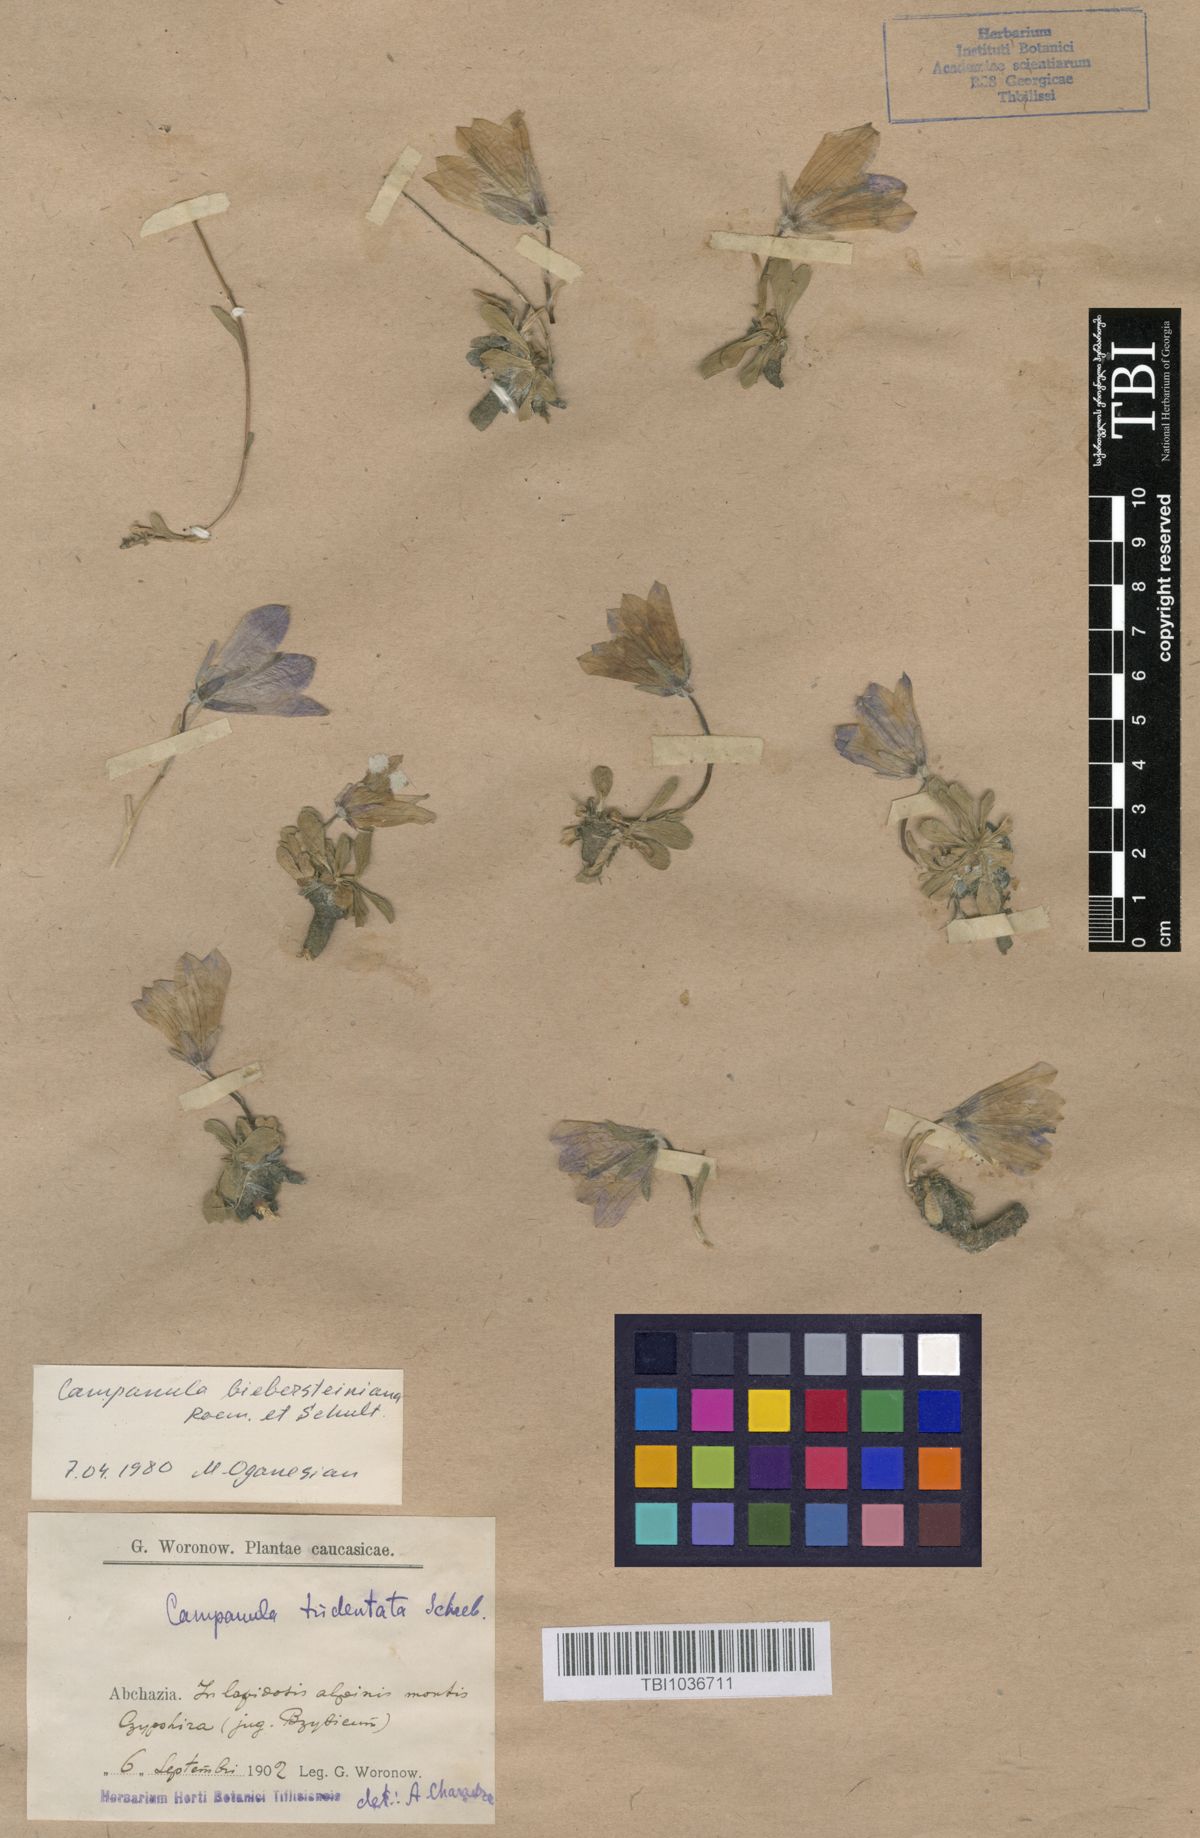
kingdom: Plantae
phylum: Tracheophyta
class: Magnoliopsida
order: Asterales
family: Campanulaceae
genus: Campanula
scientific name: Campanula tridentata
